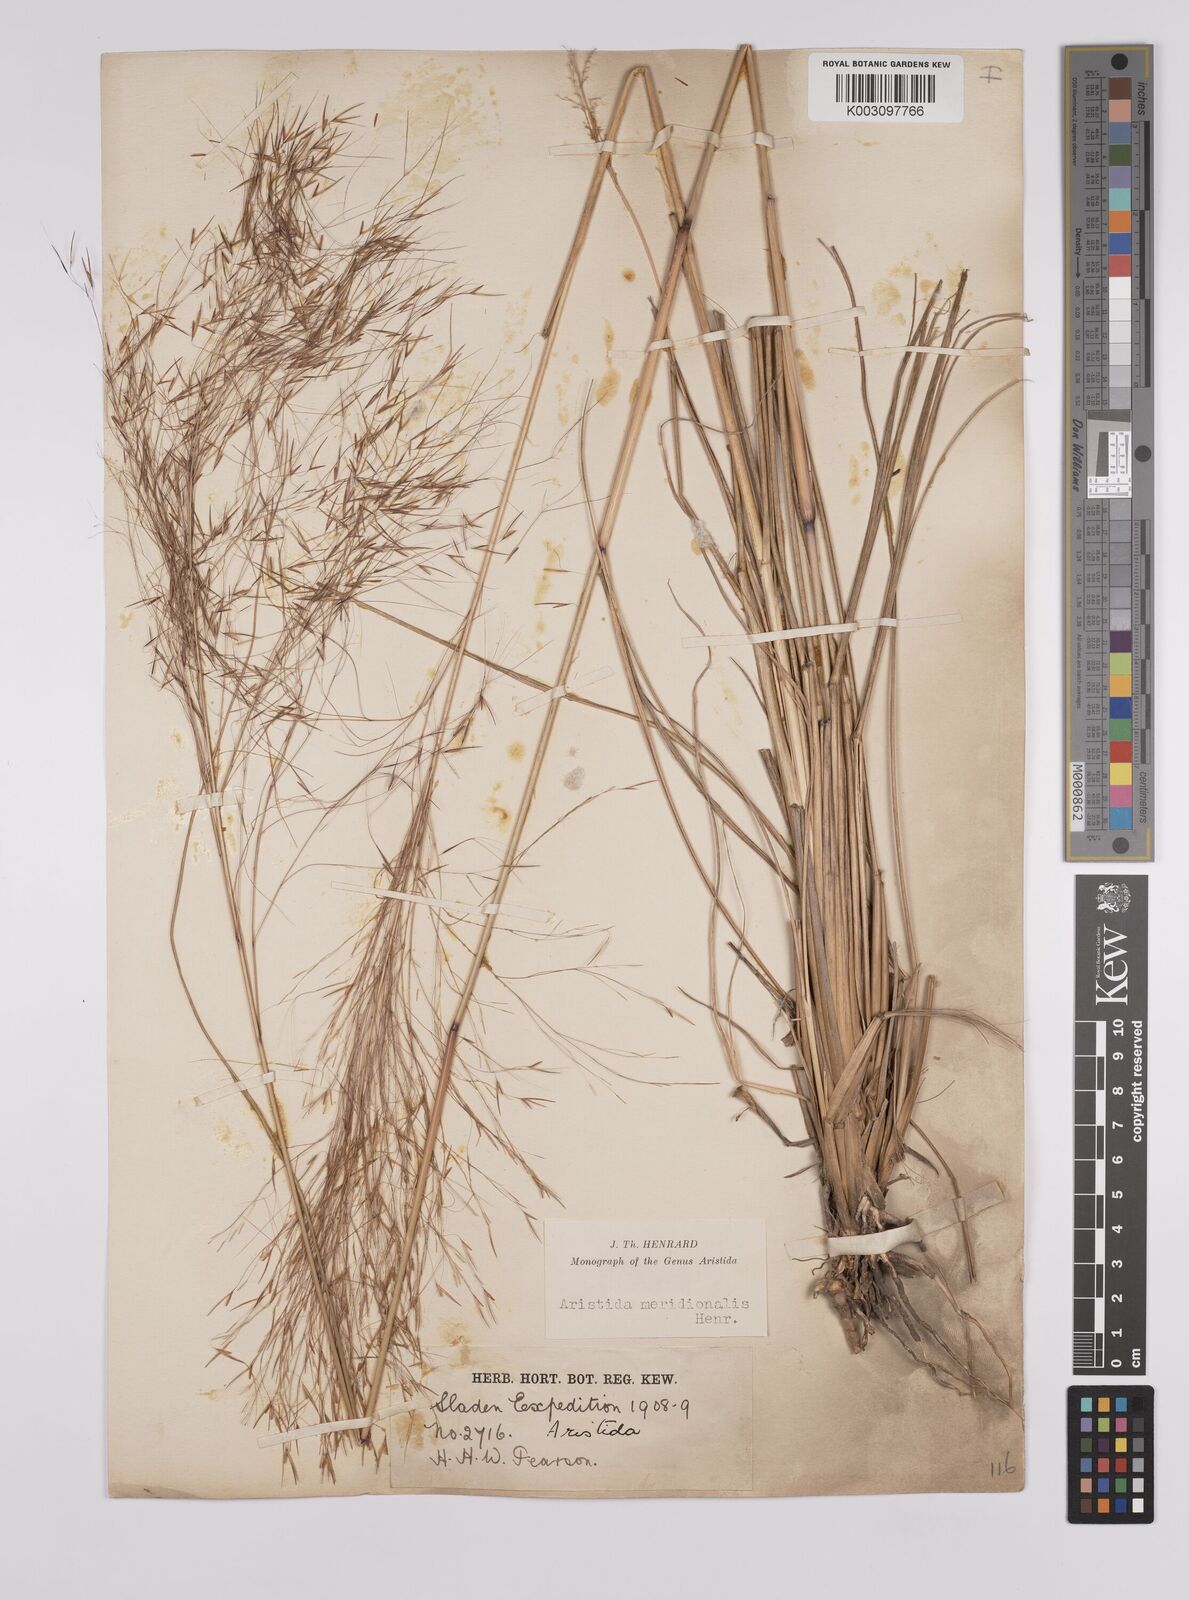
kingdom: Plantae
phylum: Tracheophyta
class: Liliopsida
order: Poales
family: Poaceae
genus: Aristida
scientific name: Aristida meridionalis
